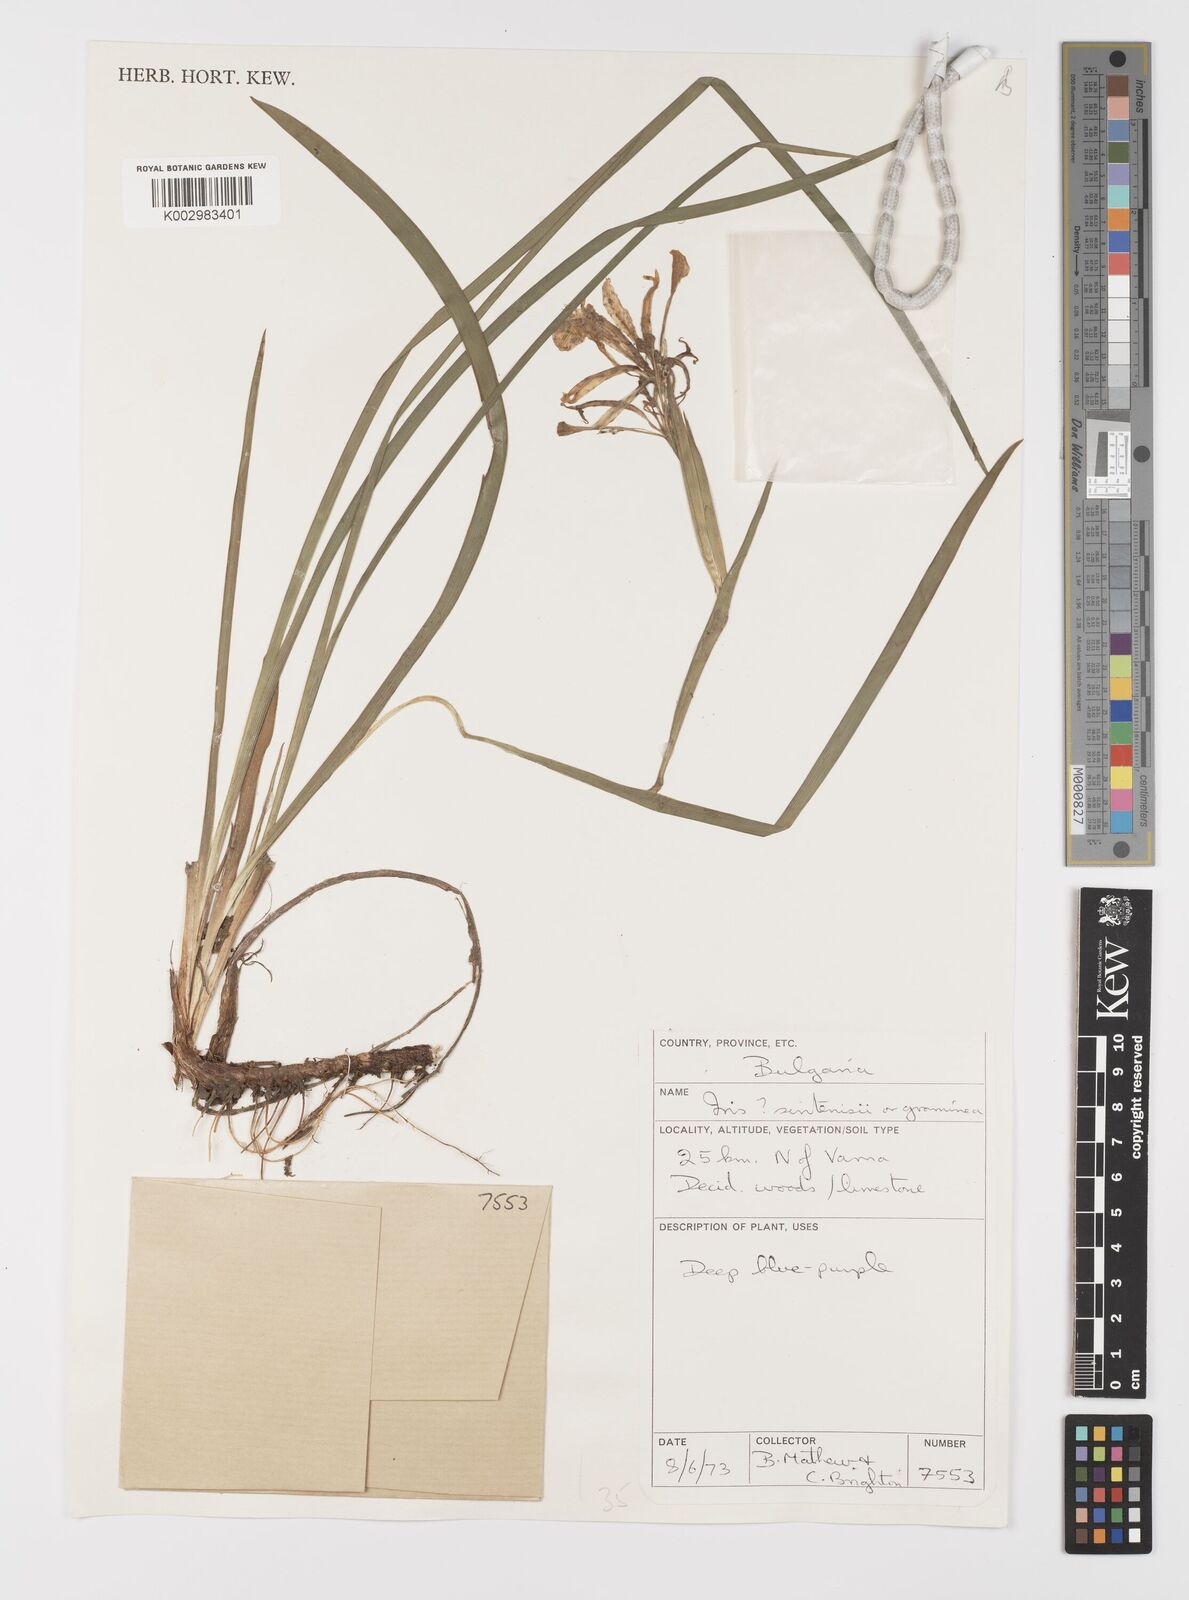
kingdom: Plantae
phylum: Tracheophyta
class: Liliopsida
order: Asparagales
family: Iridaceae
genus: Iris
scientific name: Iris sintenisii
